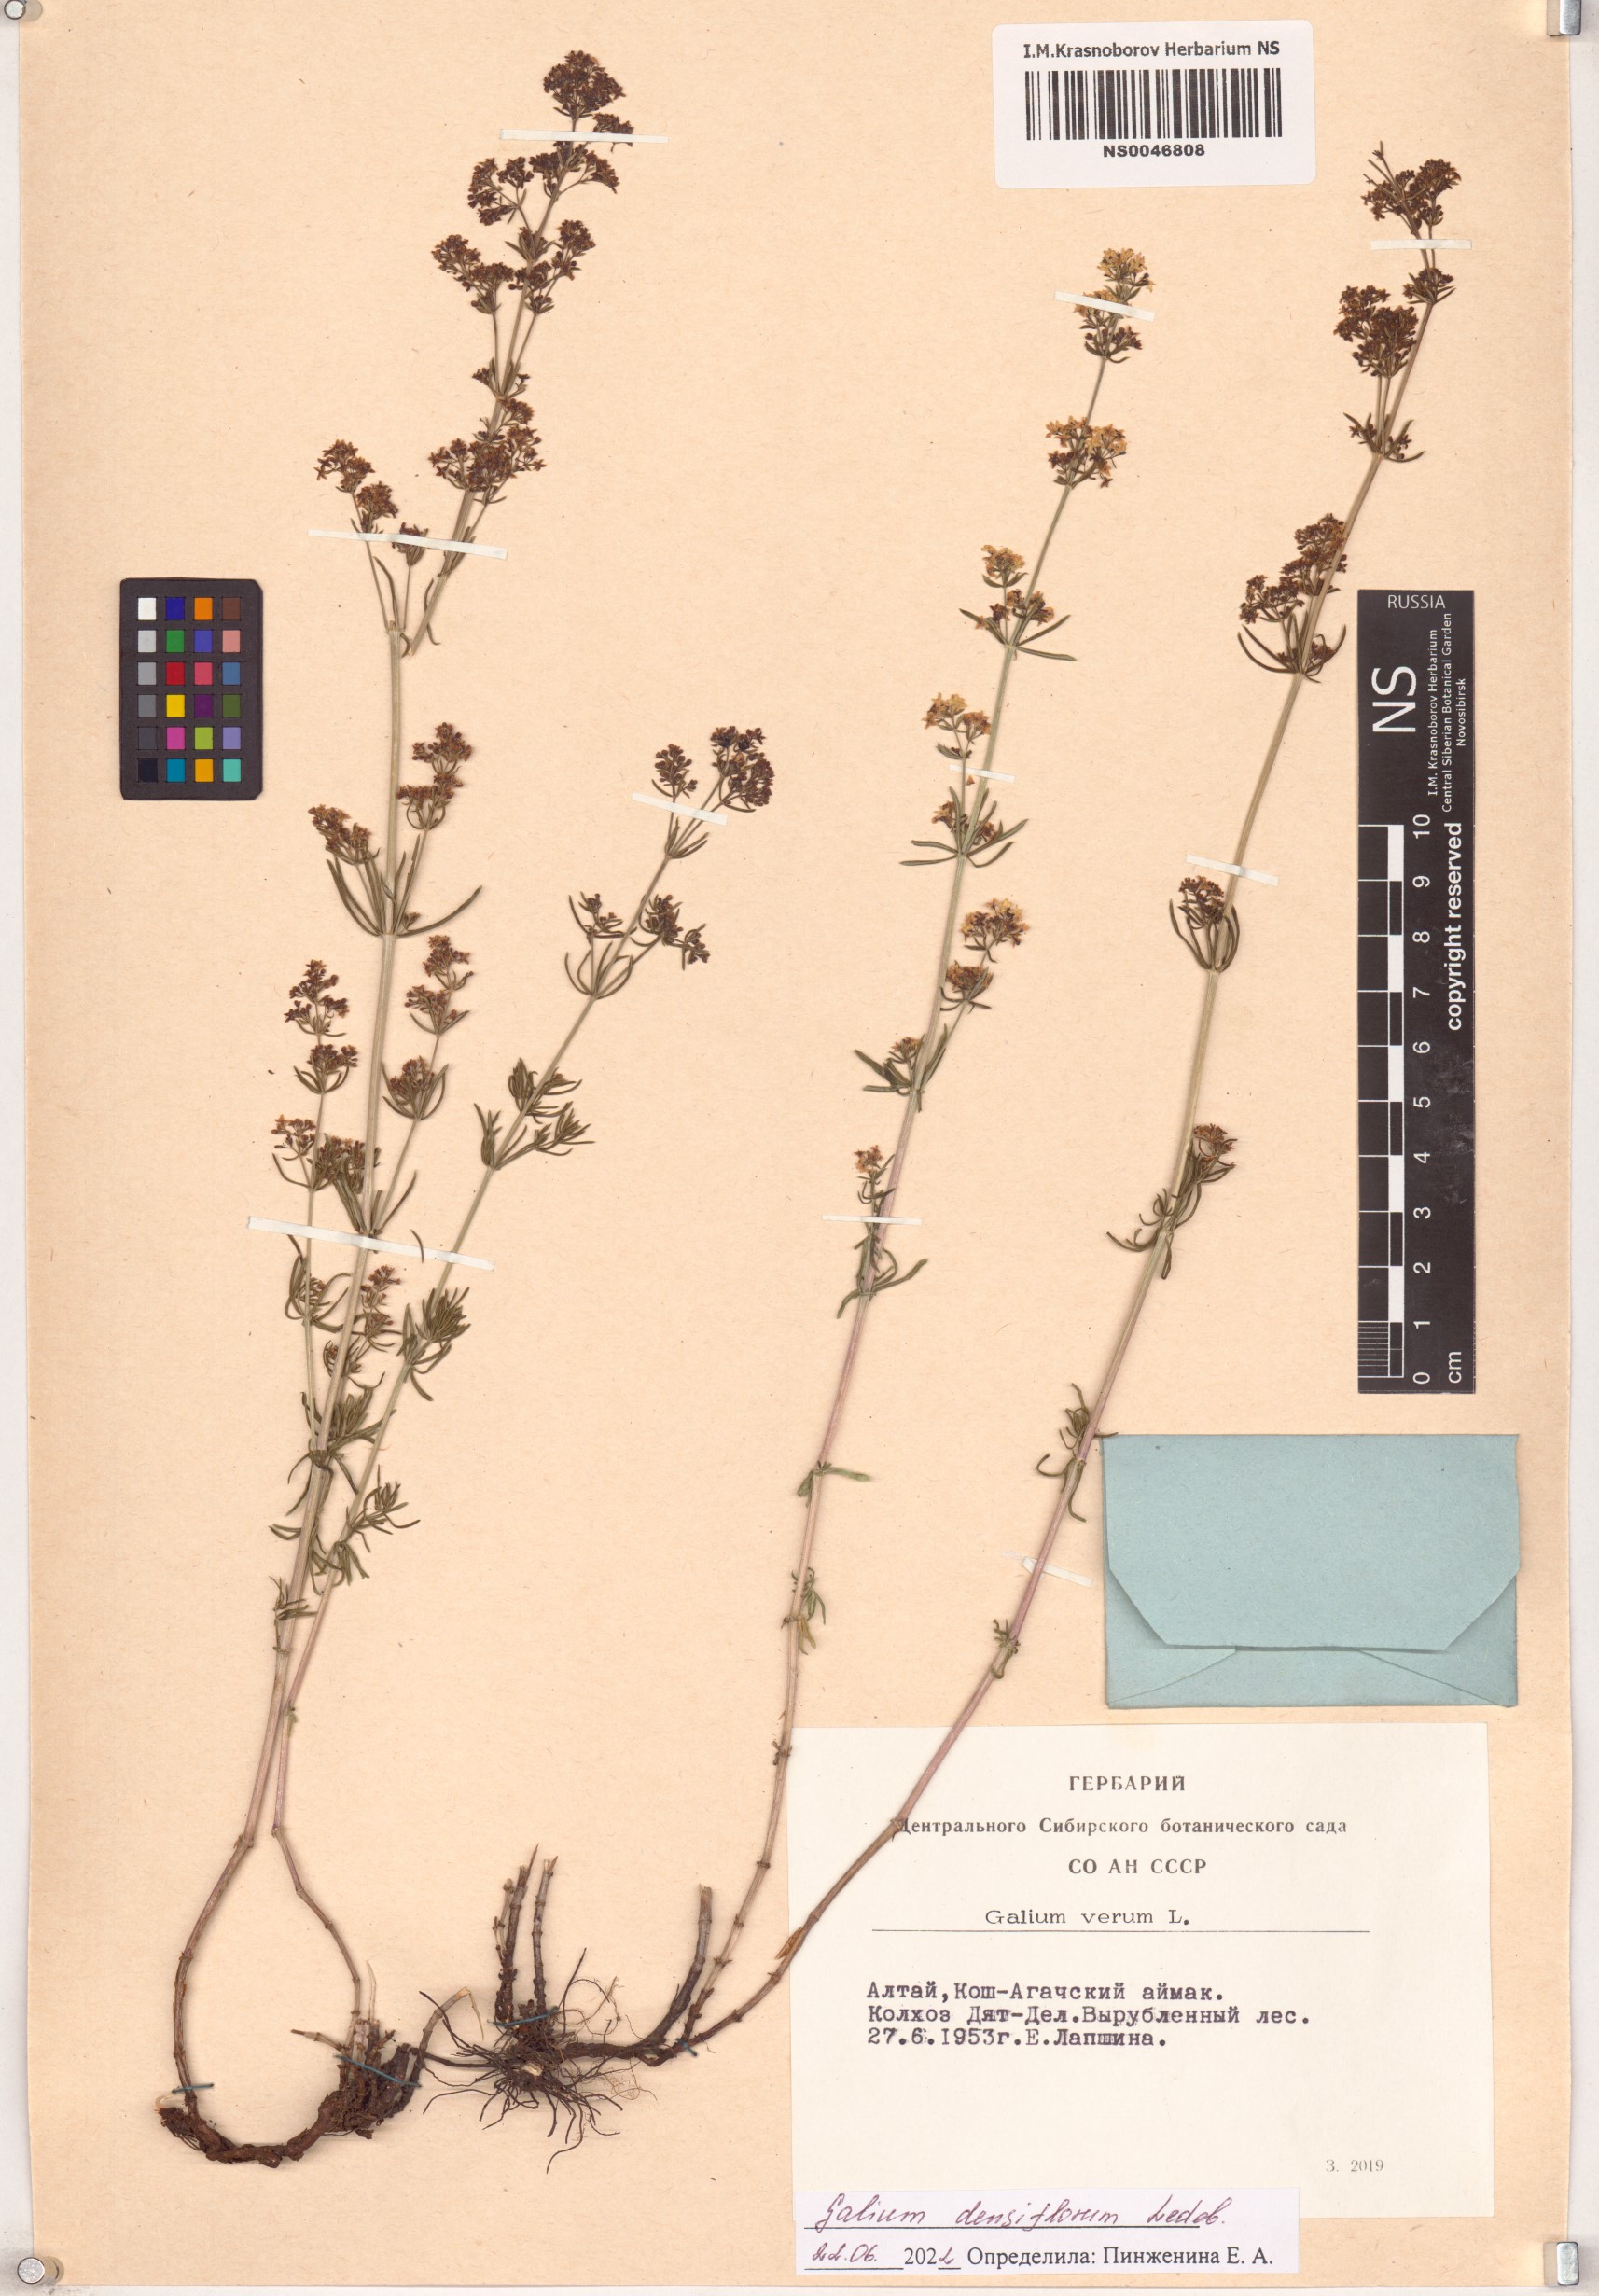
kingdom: Plantae
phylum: Tracheophyta
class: Magnoliopsida
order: Gentianales
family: Rubiaceae
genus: Galium
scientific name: Galium densiflorum
